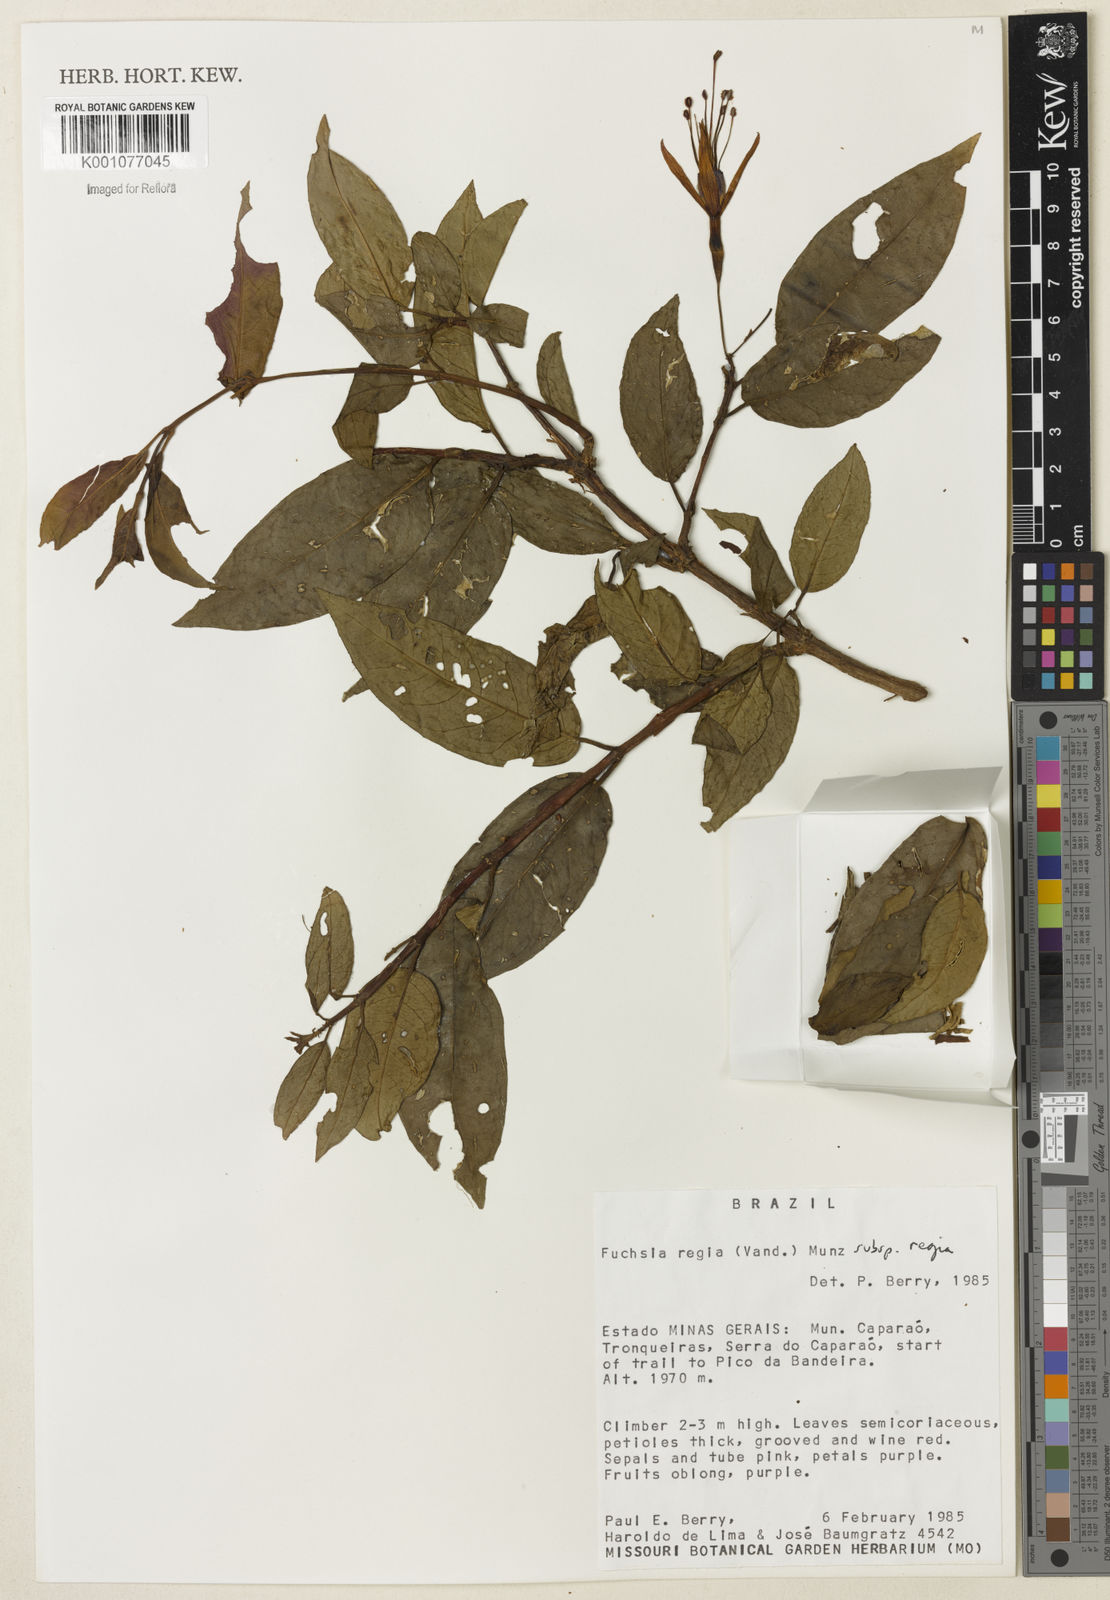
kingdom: Plantae
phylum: Tracheophyta
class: Magnoliopsida
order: Myrtales
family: Onagraceae
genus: Fuchsia
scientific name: Fuchsia regia
